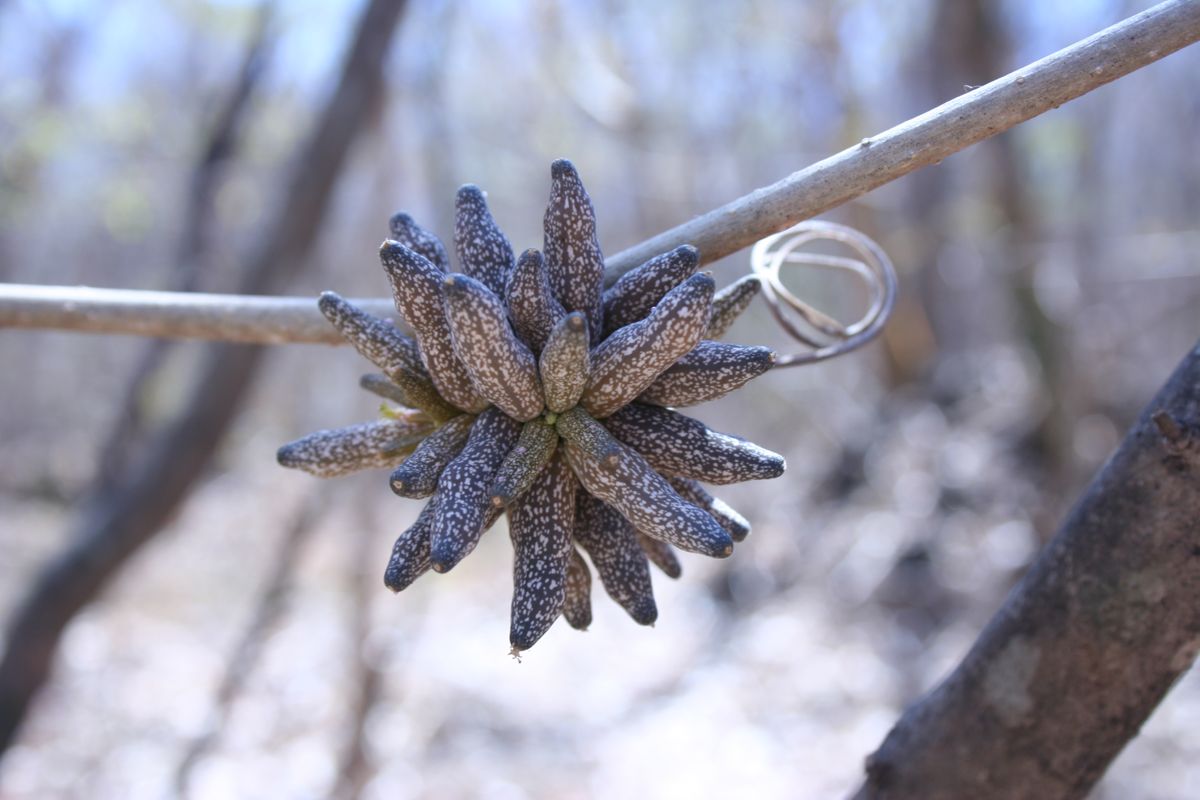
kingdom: Plantae
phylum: Tracheophyta
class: Magnoliopsida
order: Cucurbitales
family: Cucurbitaceae
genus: Doyerea
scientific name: Doyerea emetocathartica
